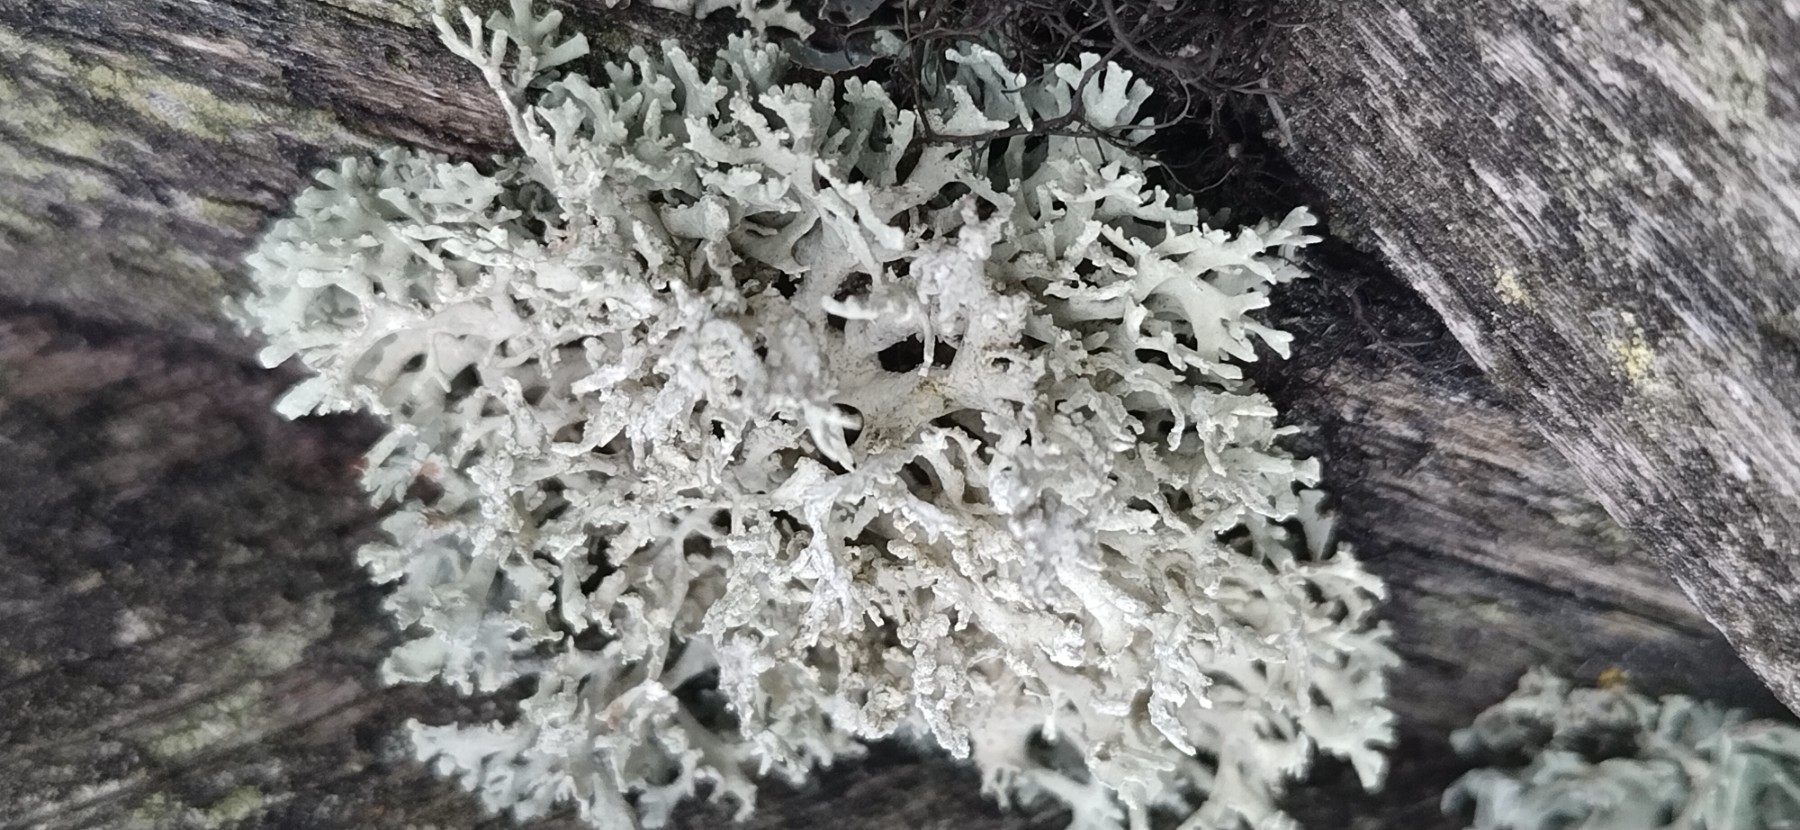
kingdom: Fungi
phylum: Ascomycota
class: Lecanoromycetes
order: Lecanorales
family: Parmeliaceae
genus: Evernia
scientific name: Evernia prunastri
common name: almindelig slåenlav
